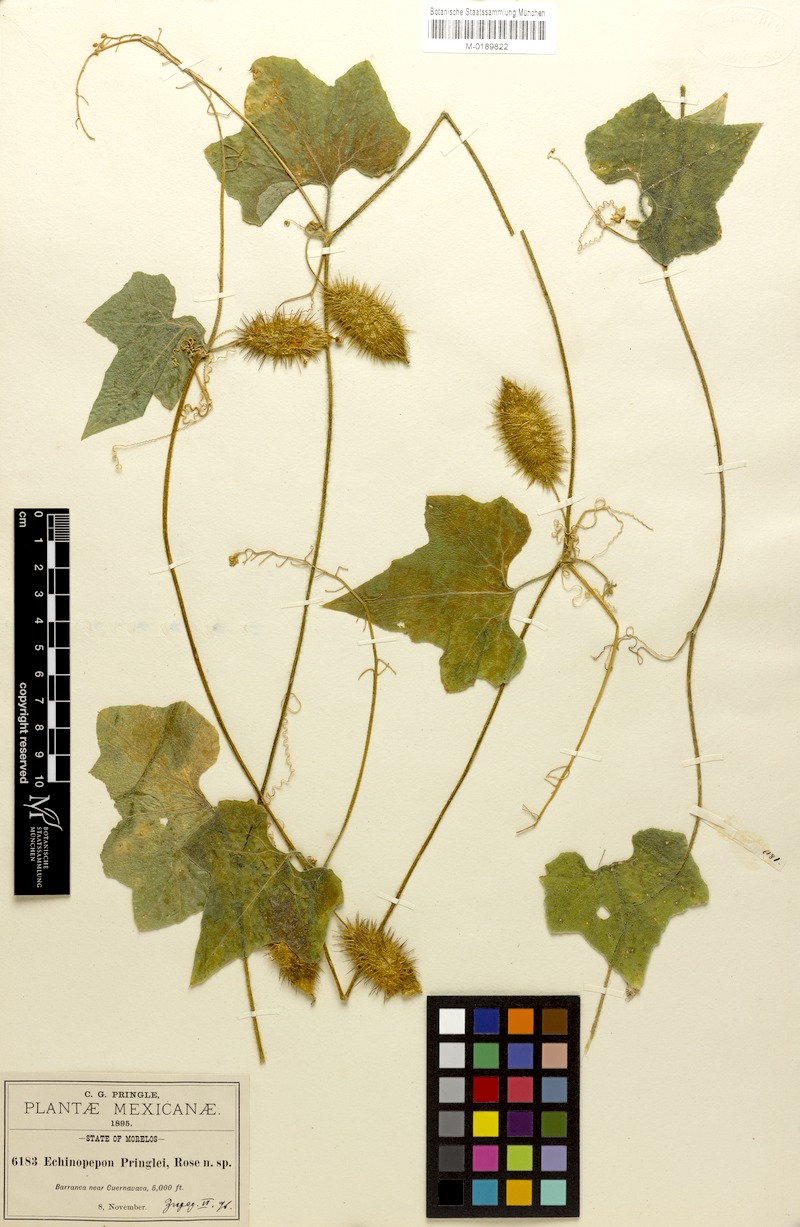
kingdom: Plantae
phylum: Tracheophyta
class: Magnoliopsida
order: Cucurbitales
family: Cucurbitaceae
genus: Echinopepon
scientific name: Echinopepon racemosus
